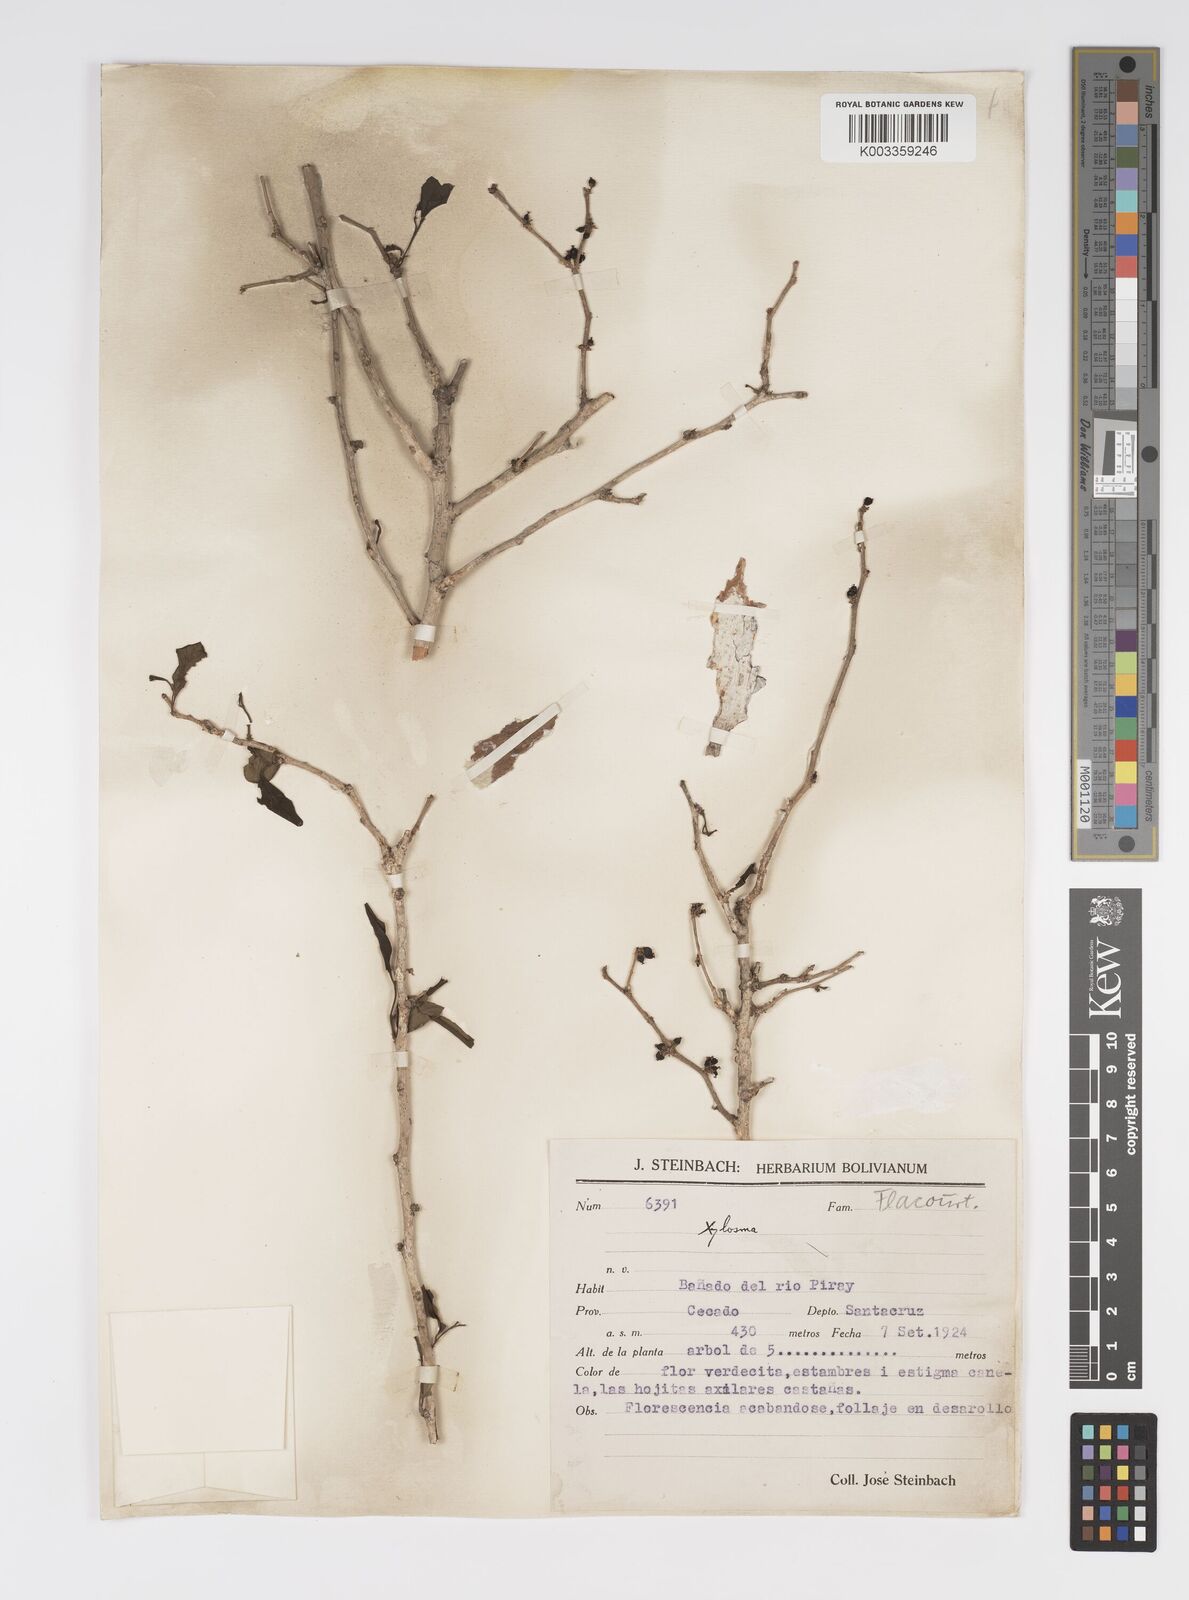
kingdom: Plantae
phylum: Tracheophyta
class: Magnoliopsida
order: Malpighiales
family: Salicaceae
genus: Xylosma
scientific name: Xylosma
